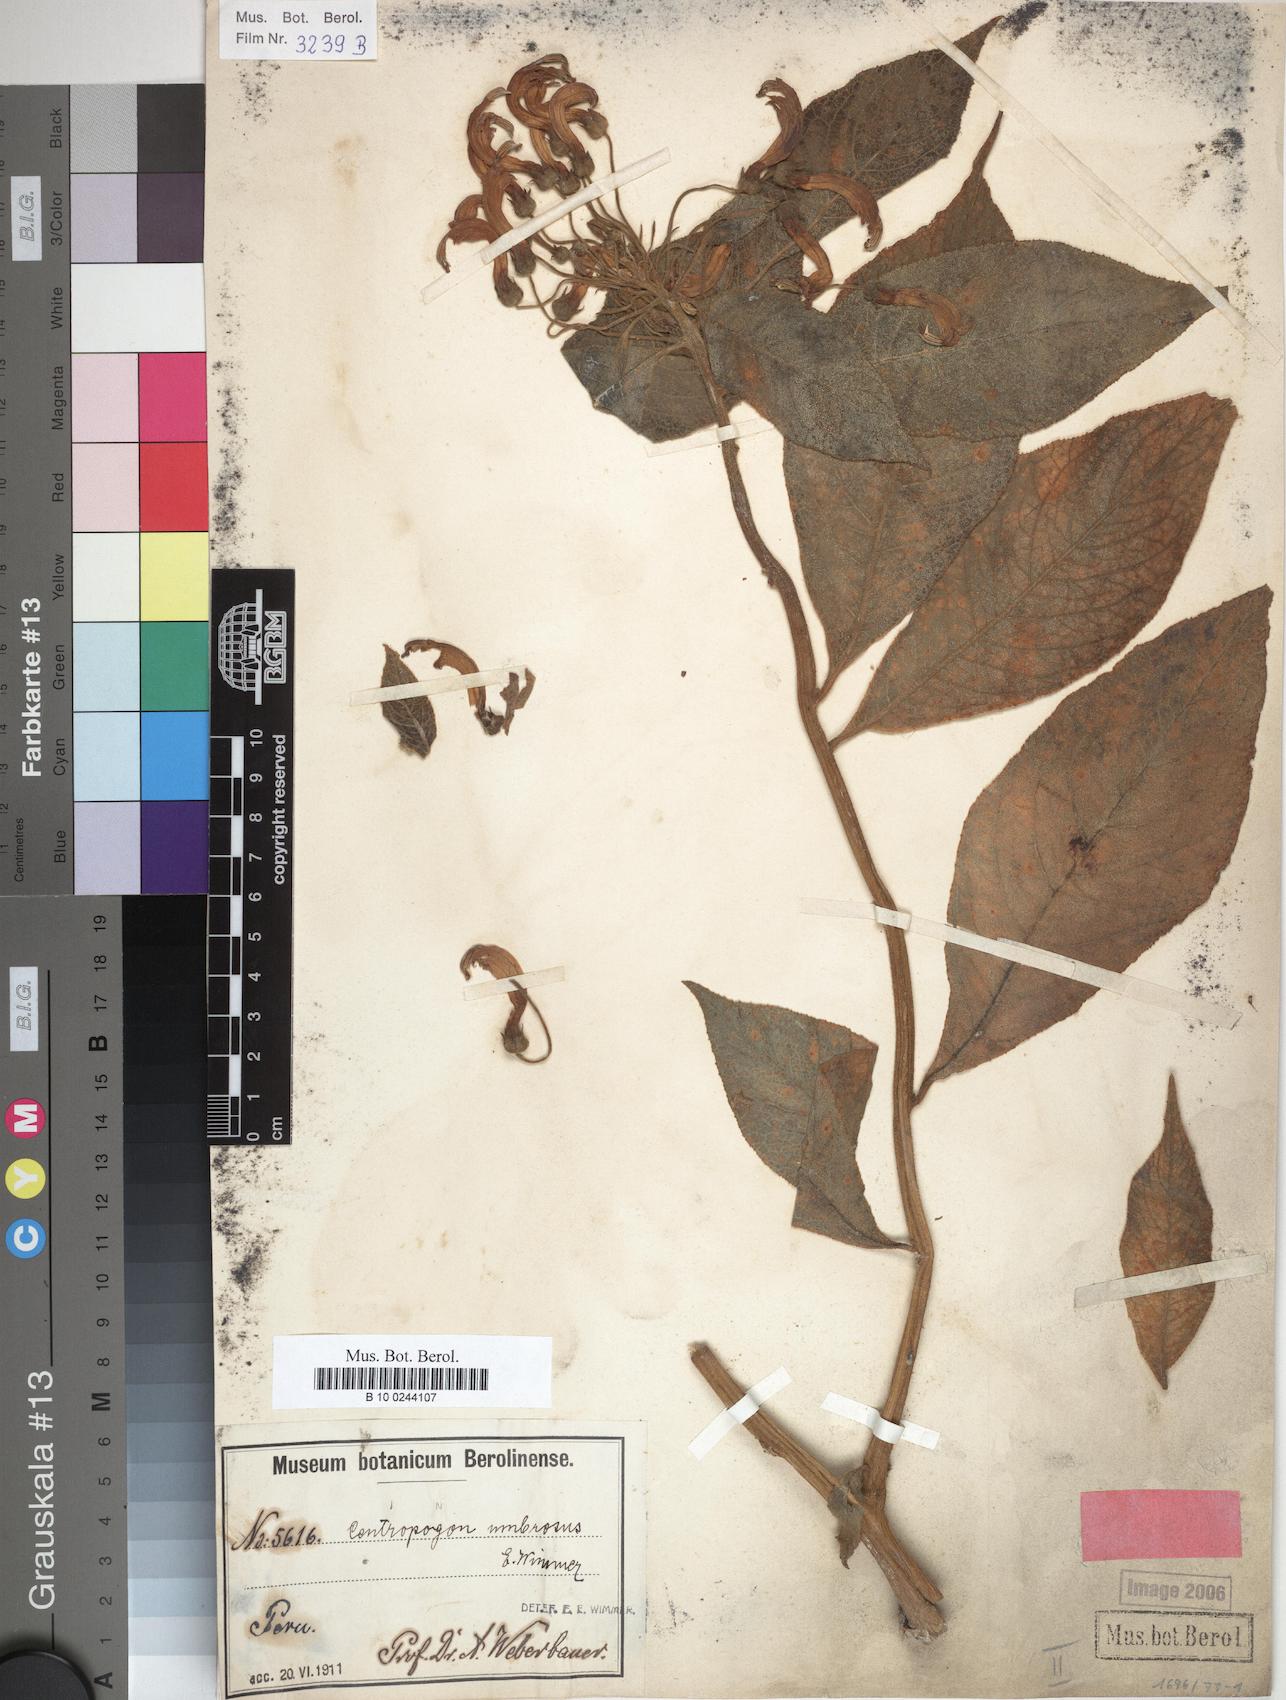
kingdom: Plantae
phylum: Tracheophyta
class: Magnoliopsida
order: Asterales
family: Campanulaceae
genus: Centropogon
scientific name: Centropogon umbrosus
